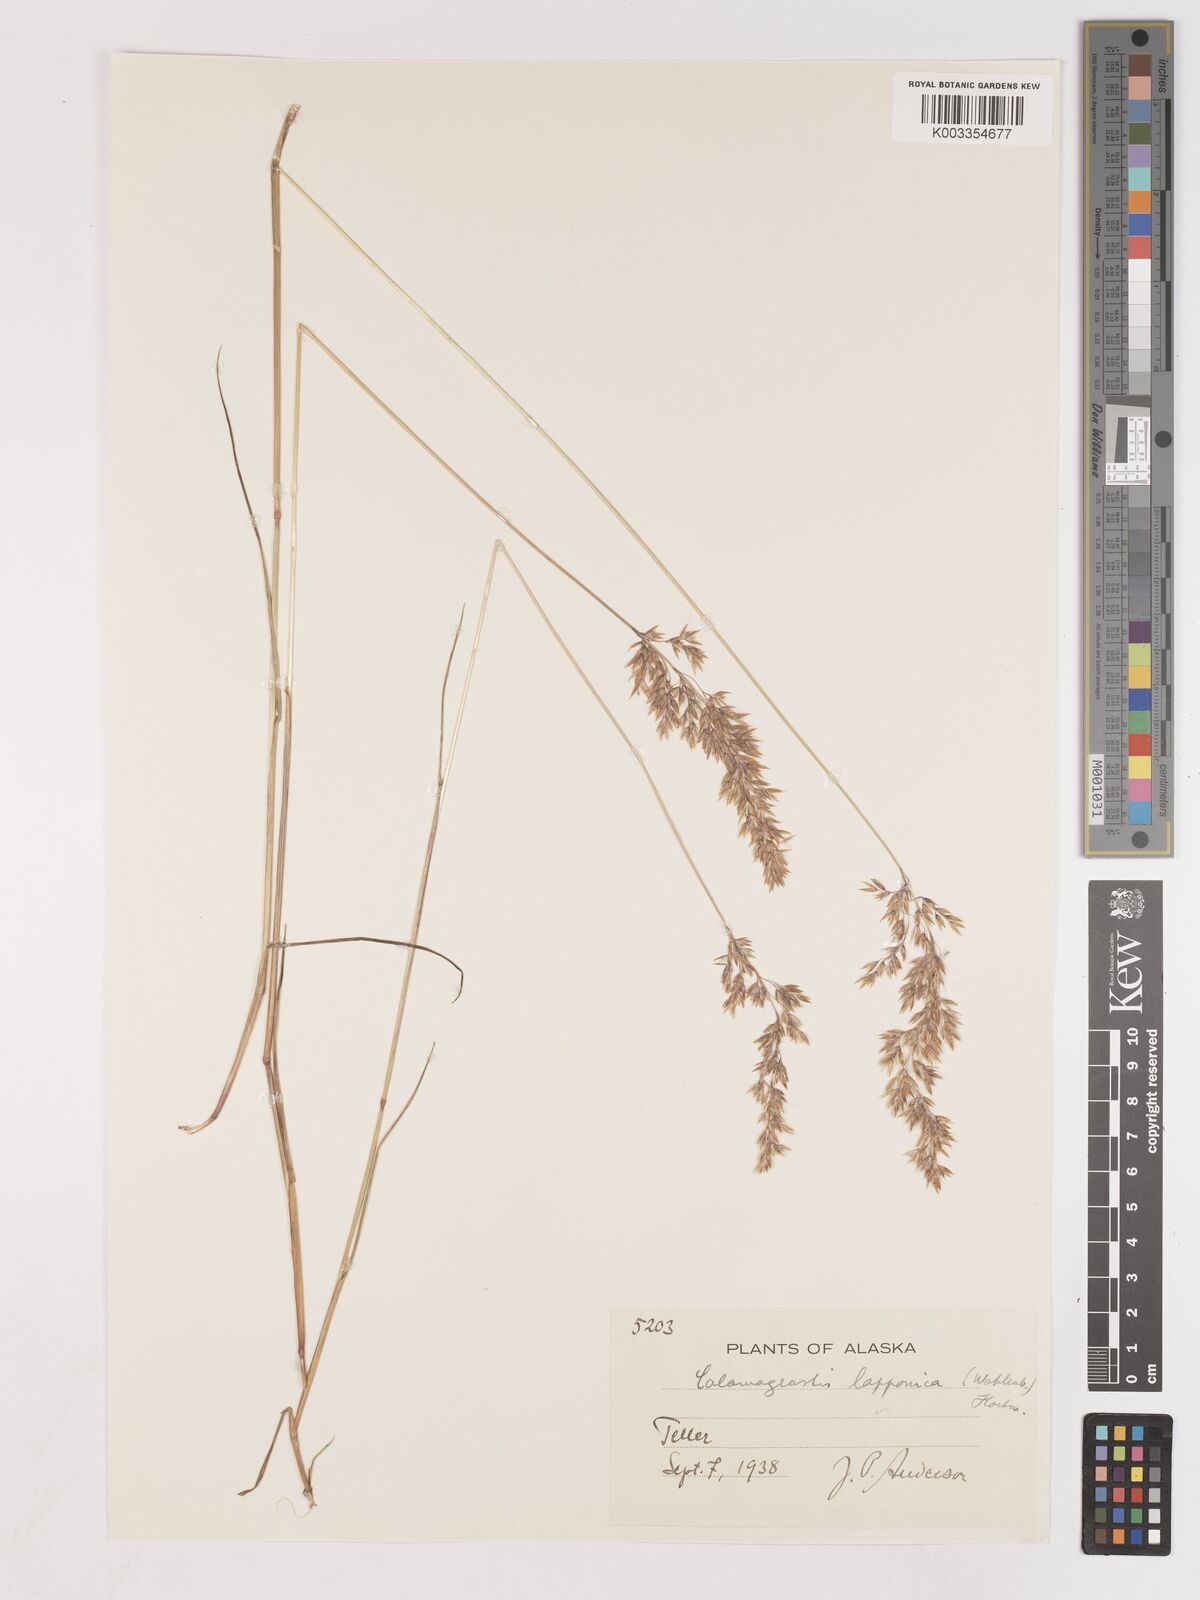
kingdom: Plantae
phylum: Tracheophyta
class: Liliopsida
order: Poales
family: Poaceae
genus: Calamagrostis
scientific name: Calamagrostis lapponica
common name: Lapland reedgrass
